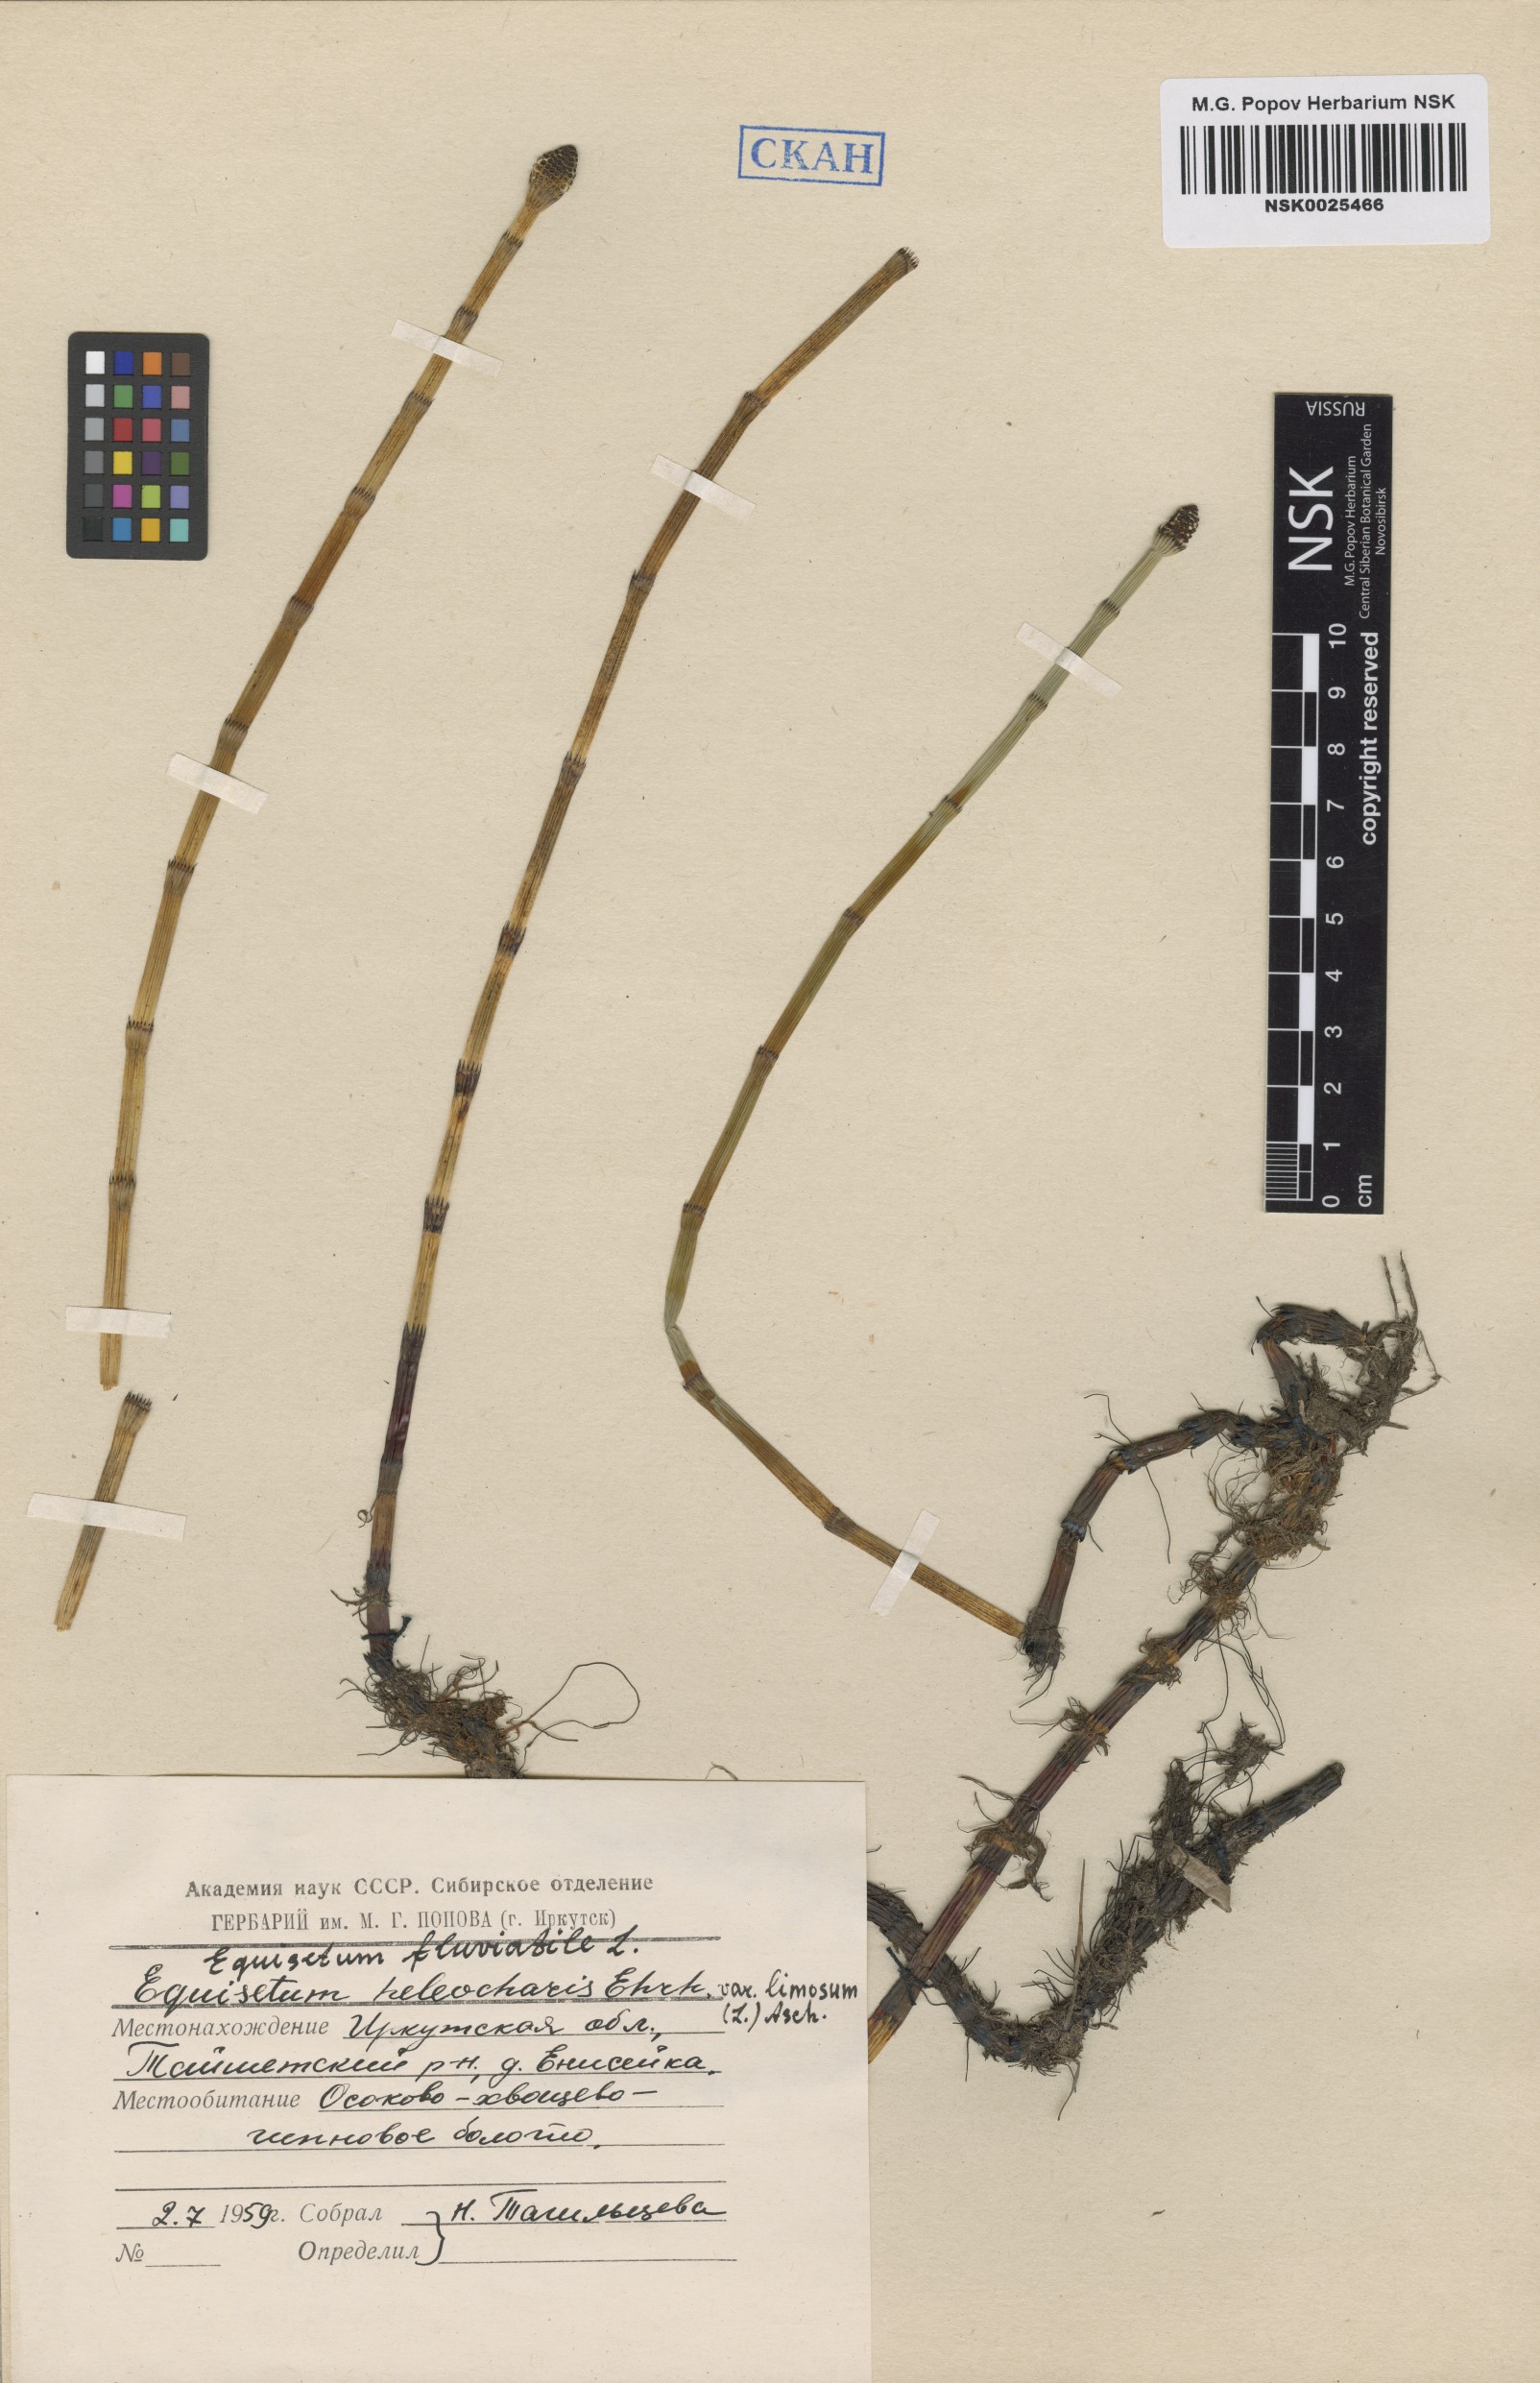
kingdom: Plantae
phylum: Tracheophyta
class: Polypodiopsida
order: Equisetales
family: Equisetaceae
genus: Equisetum
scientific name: Equisetum fluviatile
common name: Water horsetail
